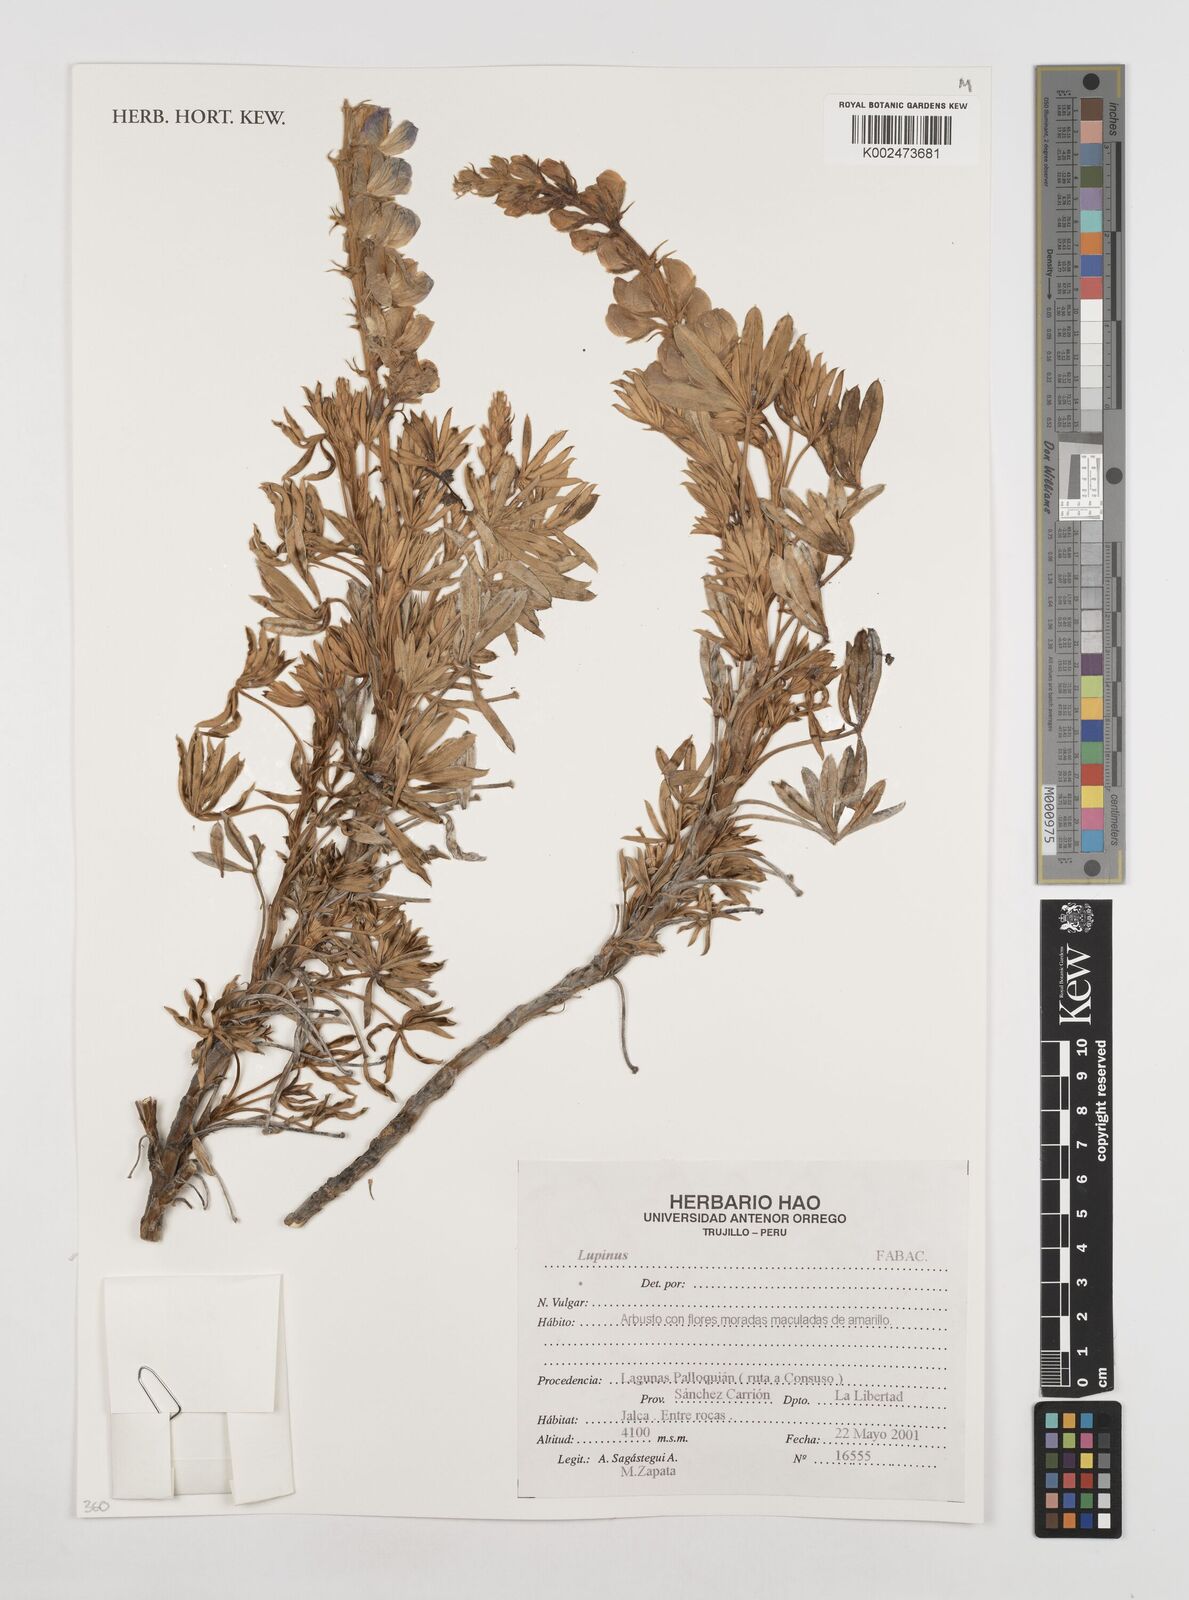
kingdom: Plantae
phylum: Tracheophyta
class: Magnoliopsida
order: Fabales
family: Fabaceae
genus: Lupinus
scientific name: Lupinus
